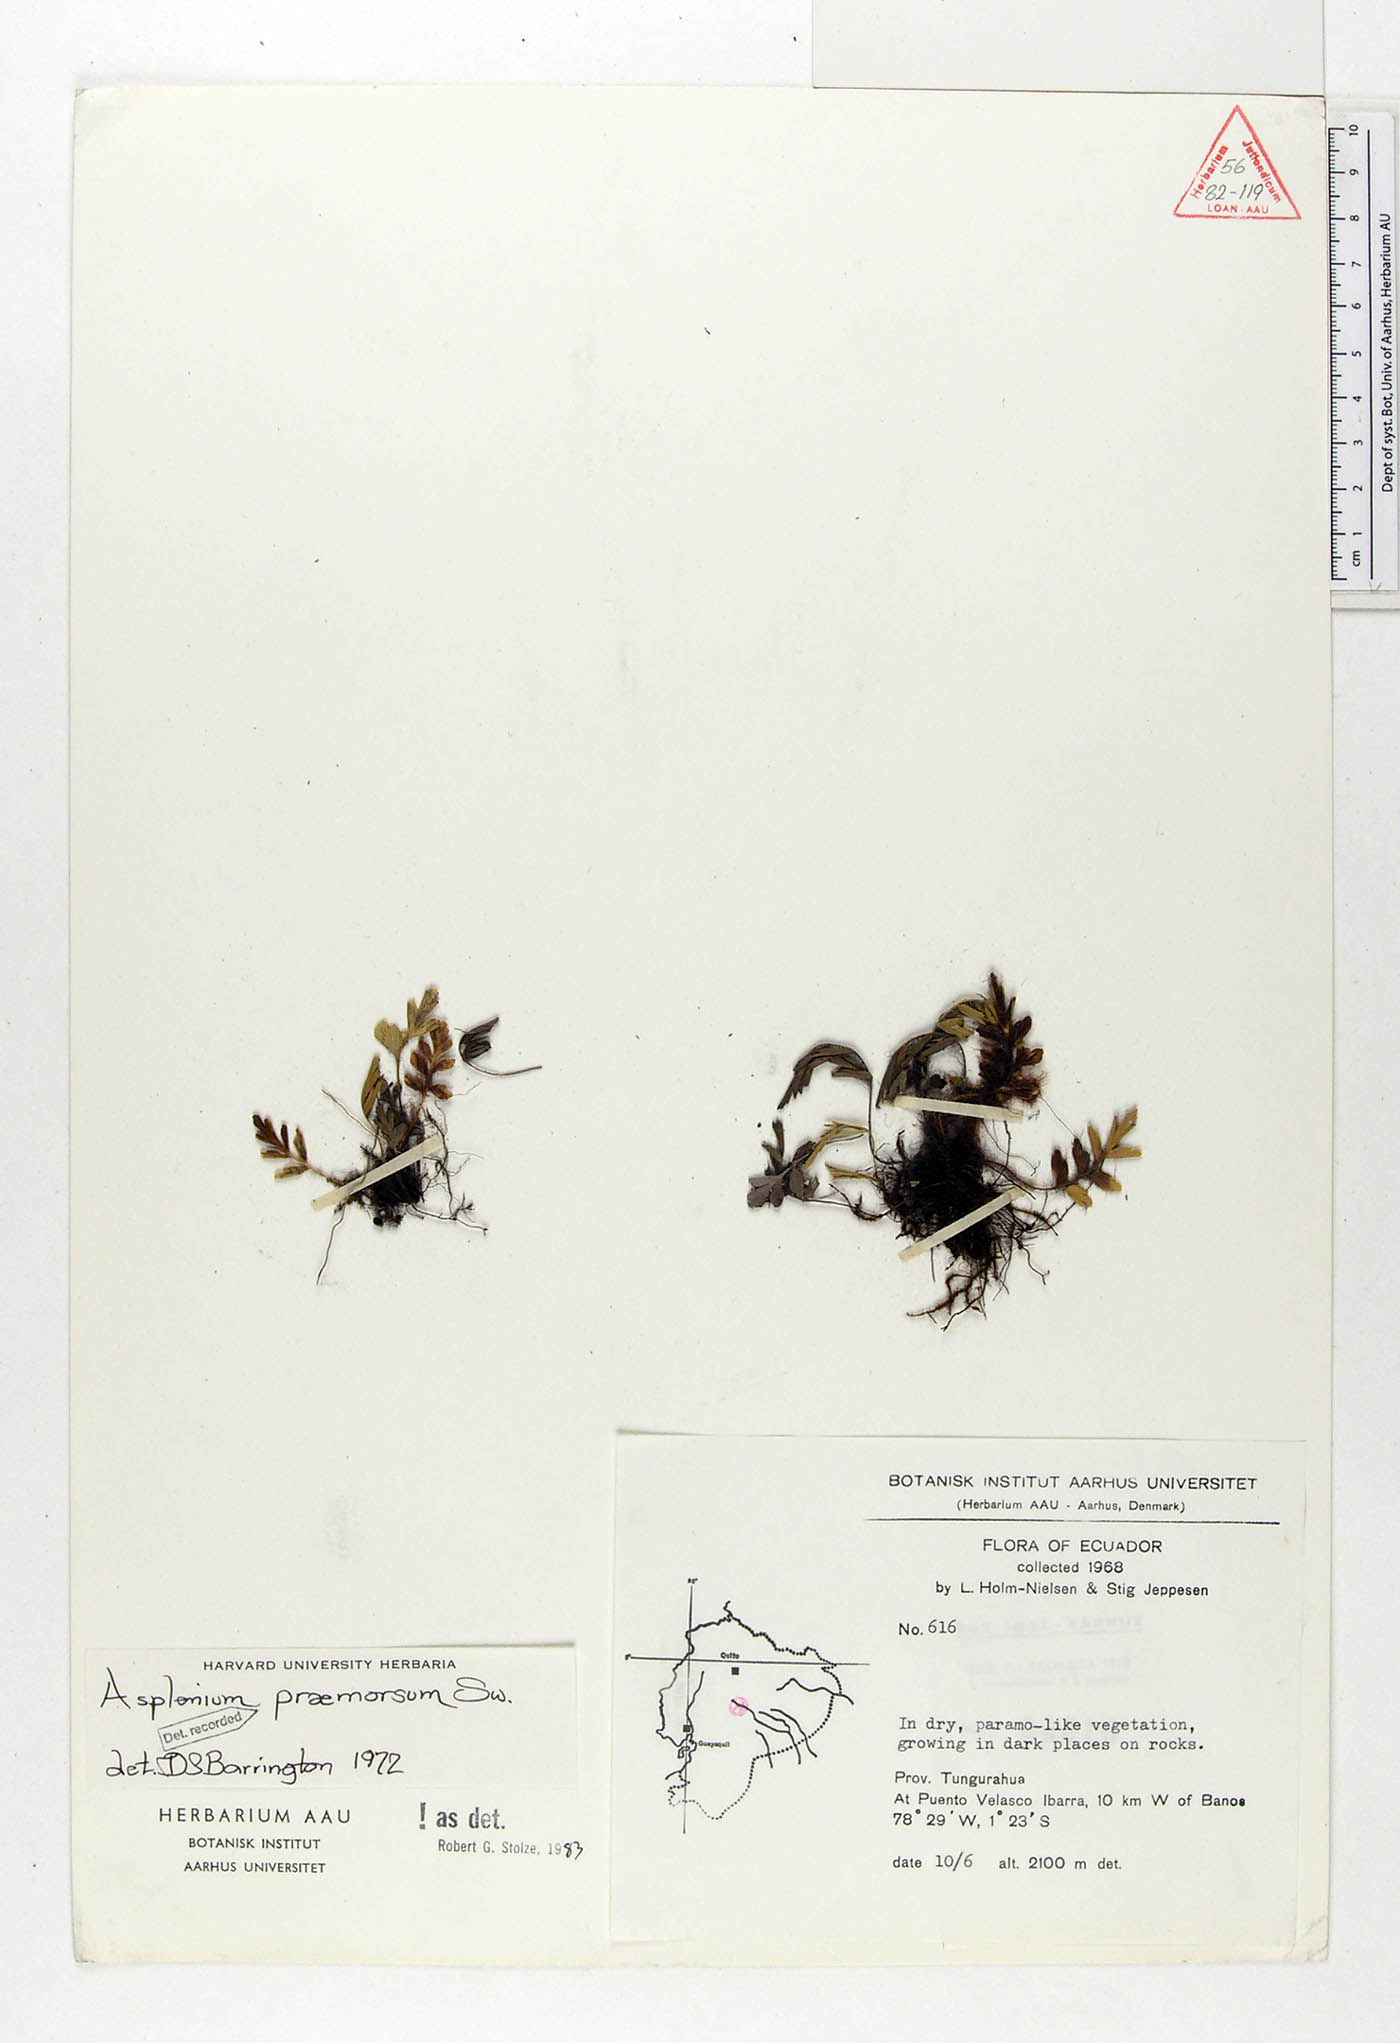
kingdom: Plantae
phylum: Tracheophyta
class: Polypodiopsida
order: Polypodiales
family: Aspleniaceae
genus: Asplenium
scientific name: Asplenium praemorsum
